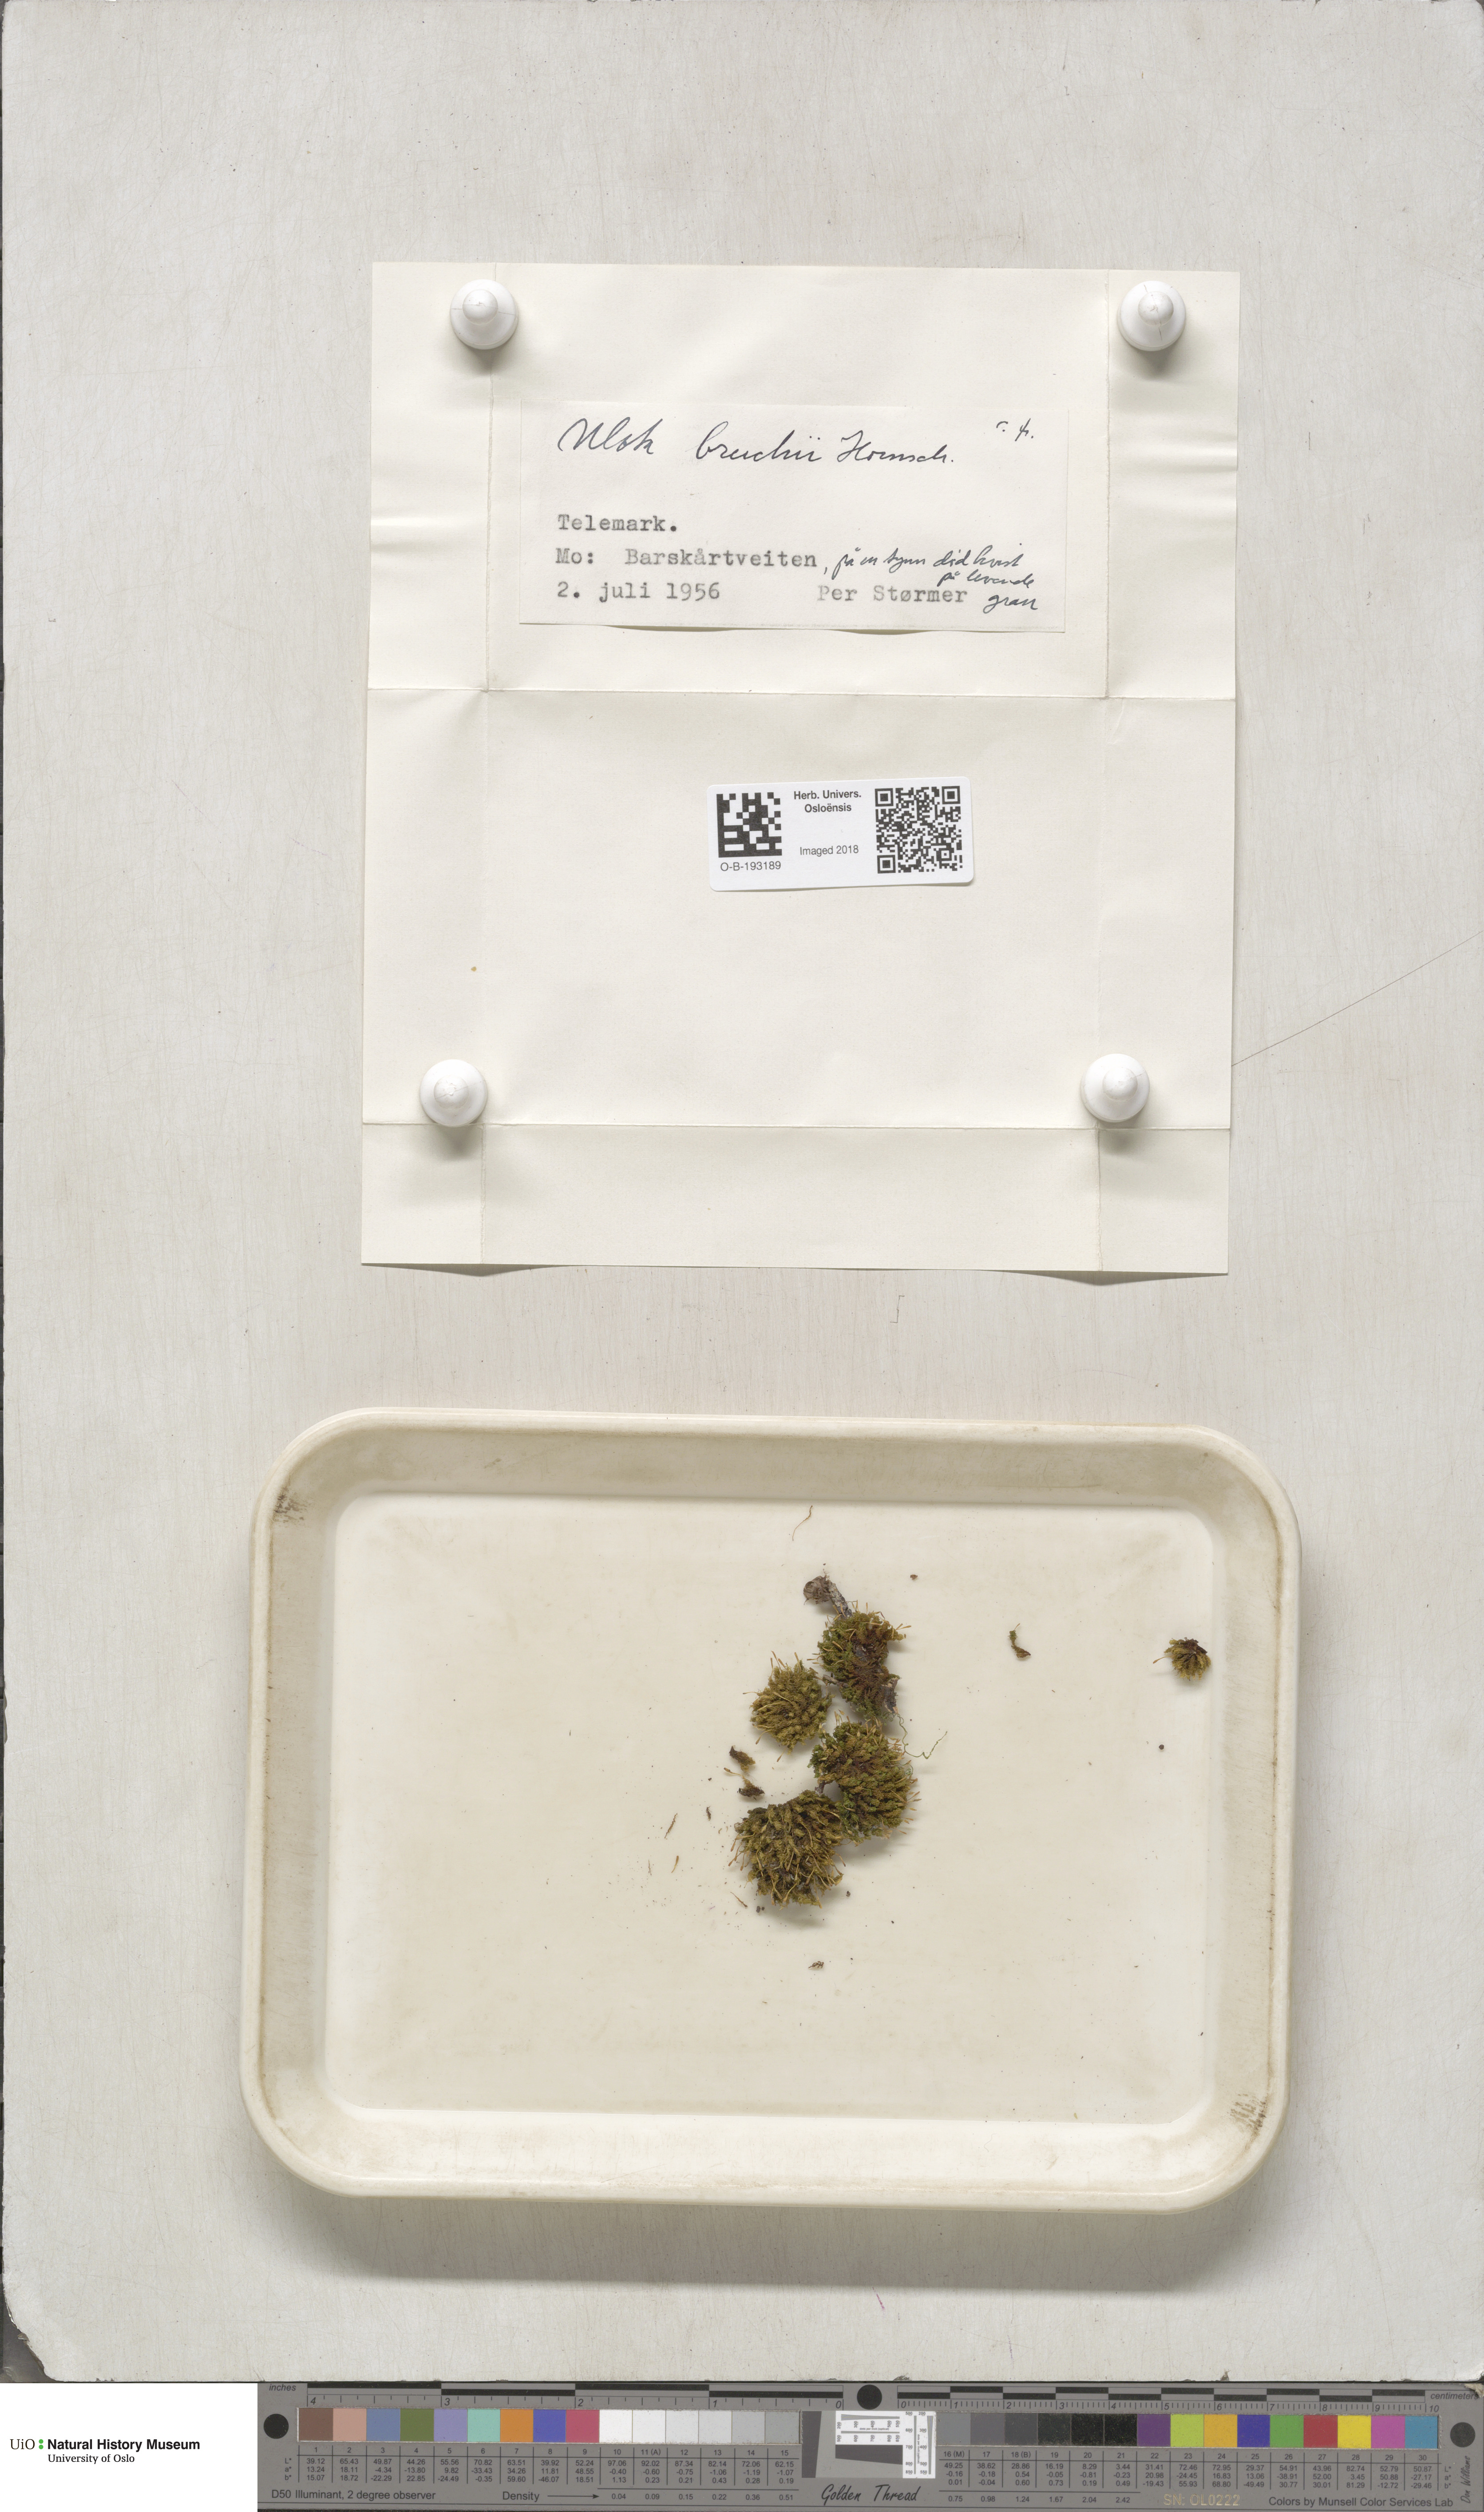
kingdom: Plantae
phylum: Bryophyta
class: Bryopsida
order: Orthotrichales
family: Orthotrichaceae
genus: Ulota
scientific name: Ulota bruchii
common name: Bruch's pincushion
